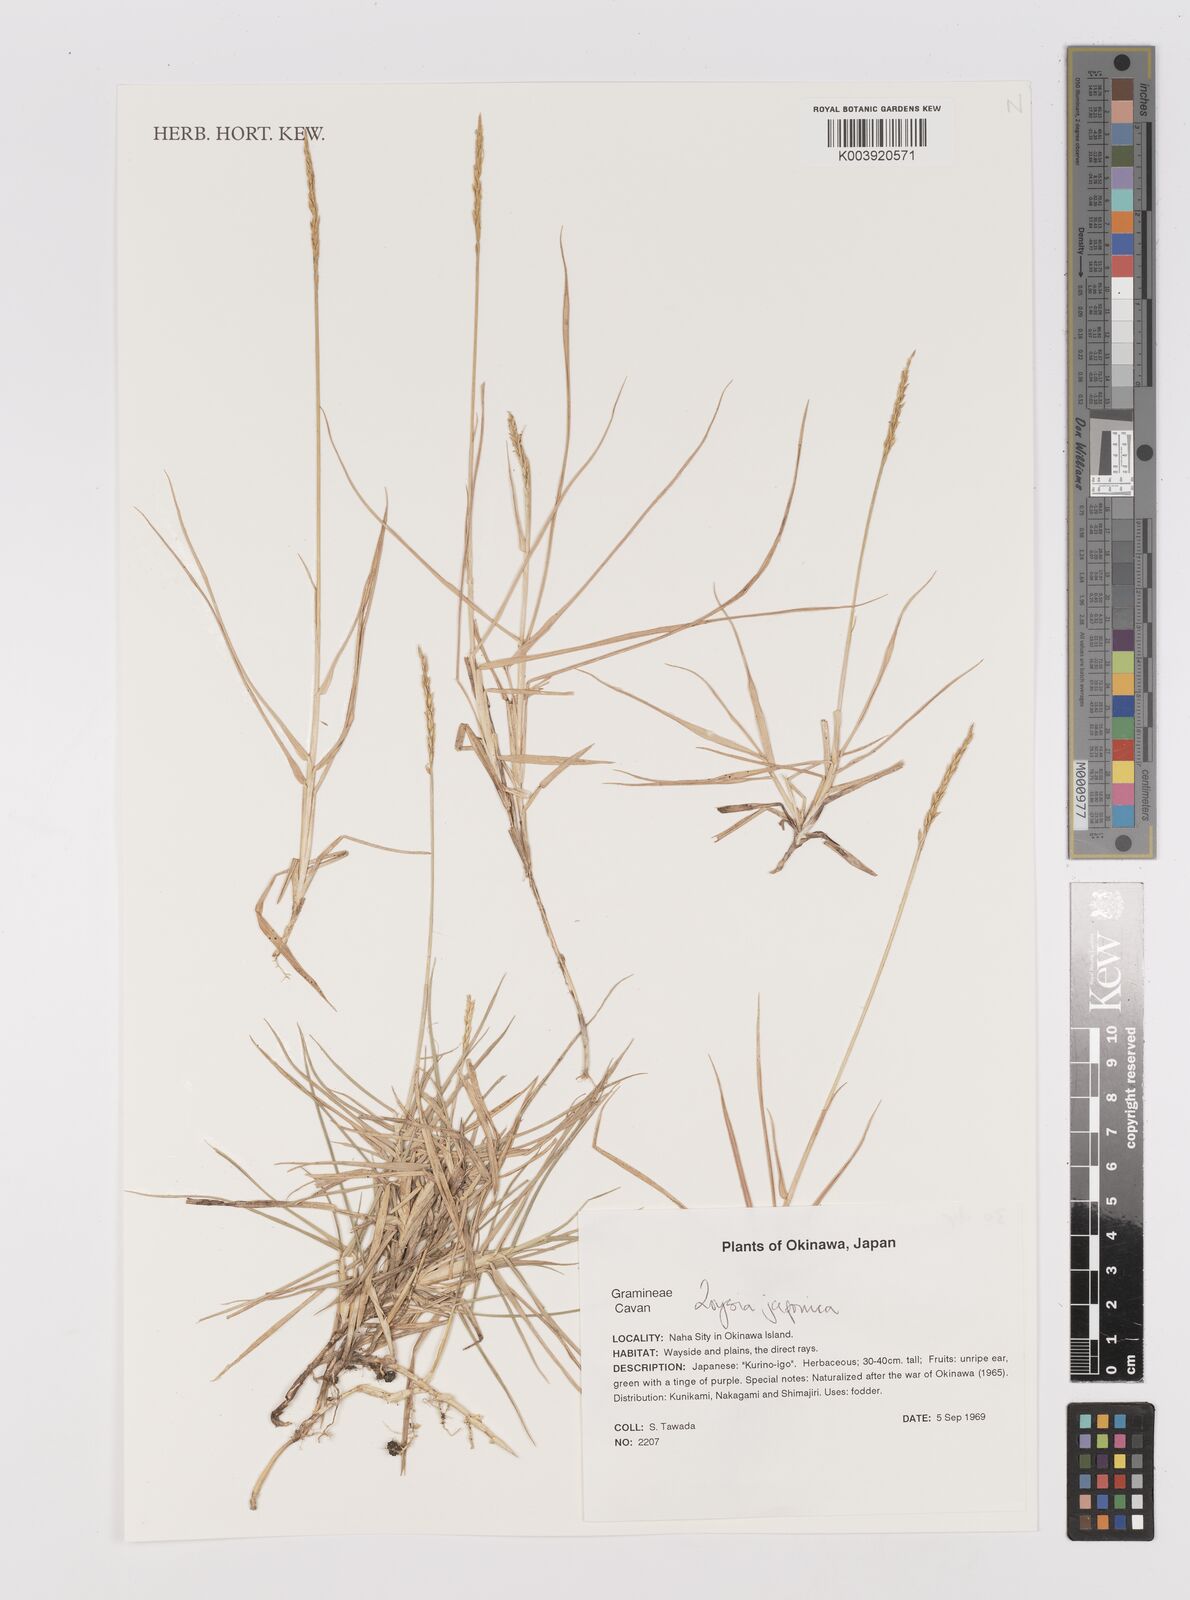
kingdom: Plantae
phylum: Tracheophyta
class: Liliopsida
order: Poales
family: Poaceae
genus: Zoysia
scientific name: Zoysia japonica
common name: Korean lawngrass
